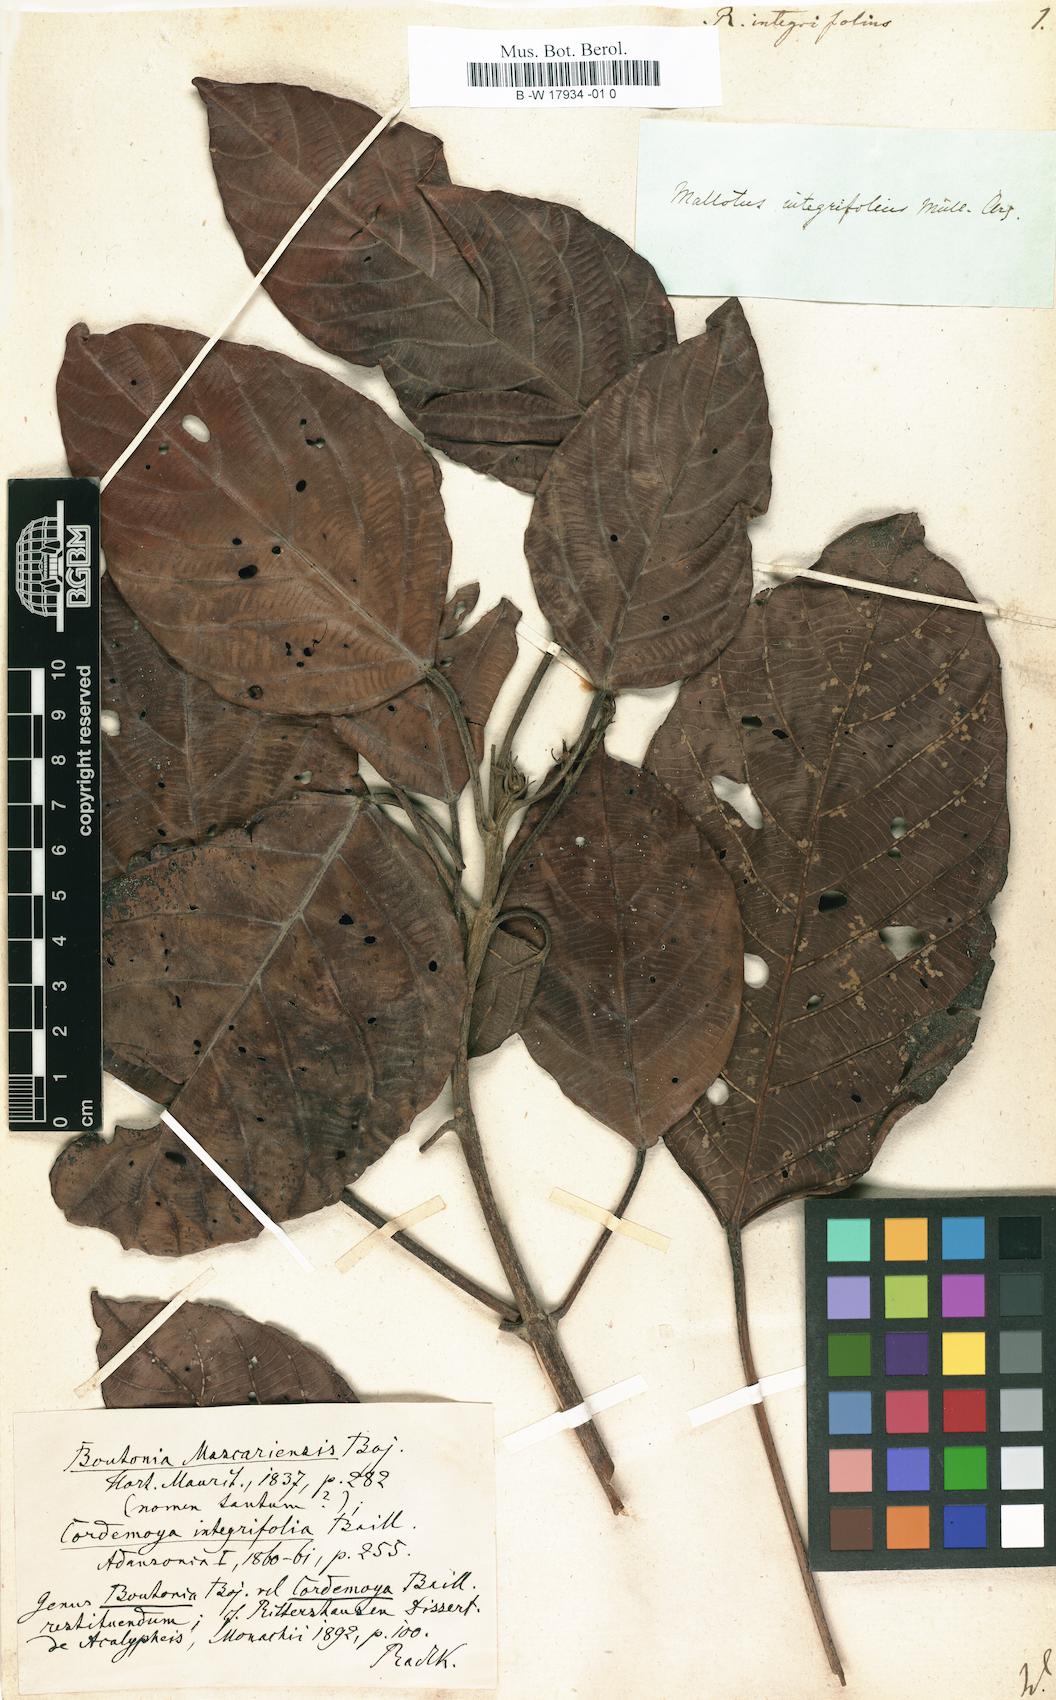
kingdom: Plantae
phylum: Tracheophyta
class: Magnoliopsida
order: Malpighiales
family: Euphorbiaceae
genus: Hancea
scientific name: Hancea integrifolia
